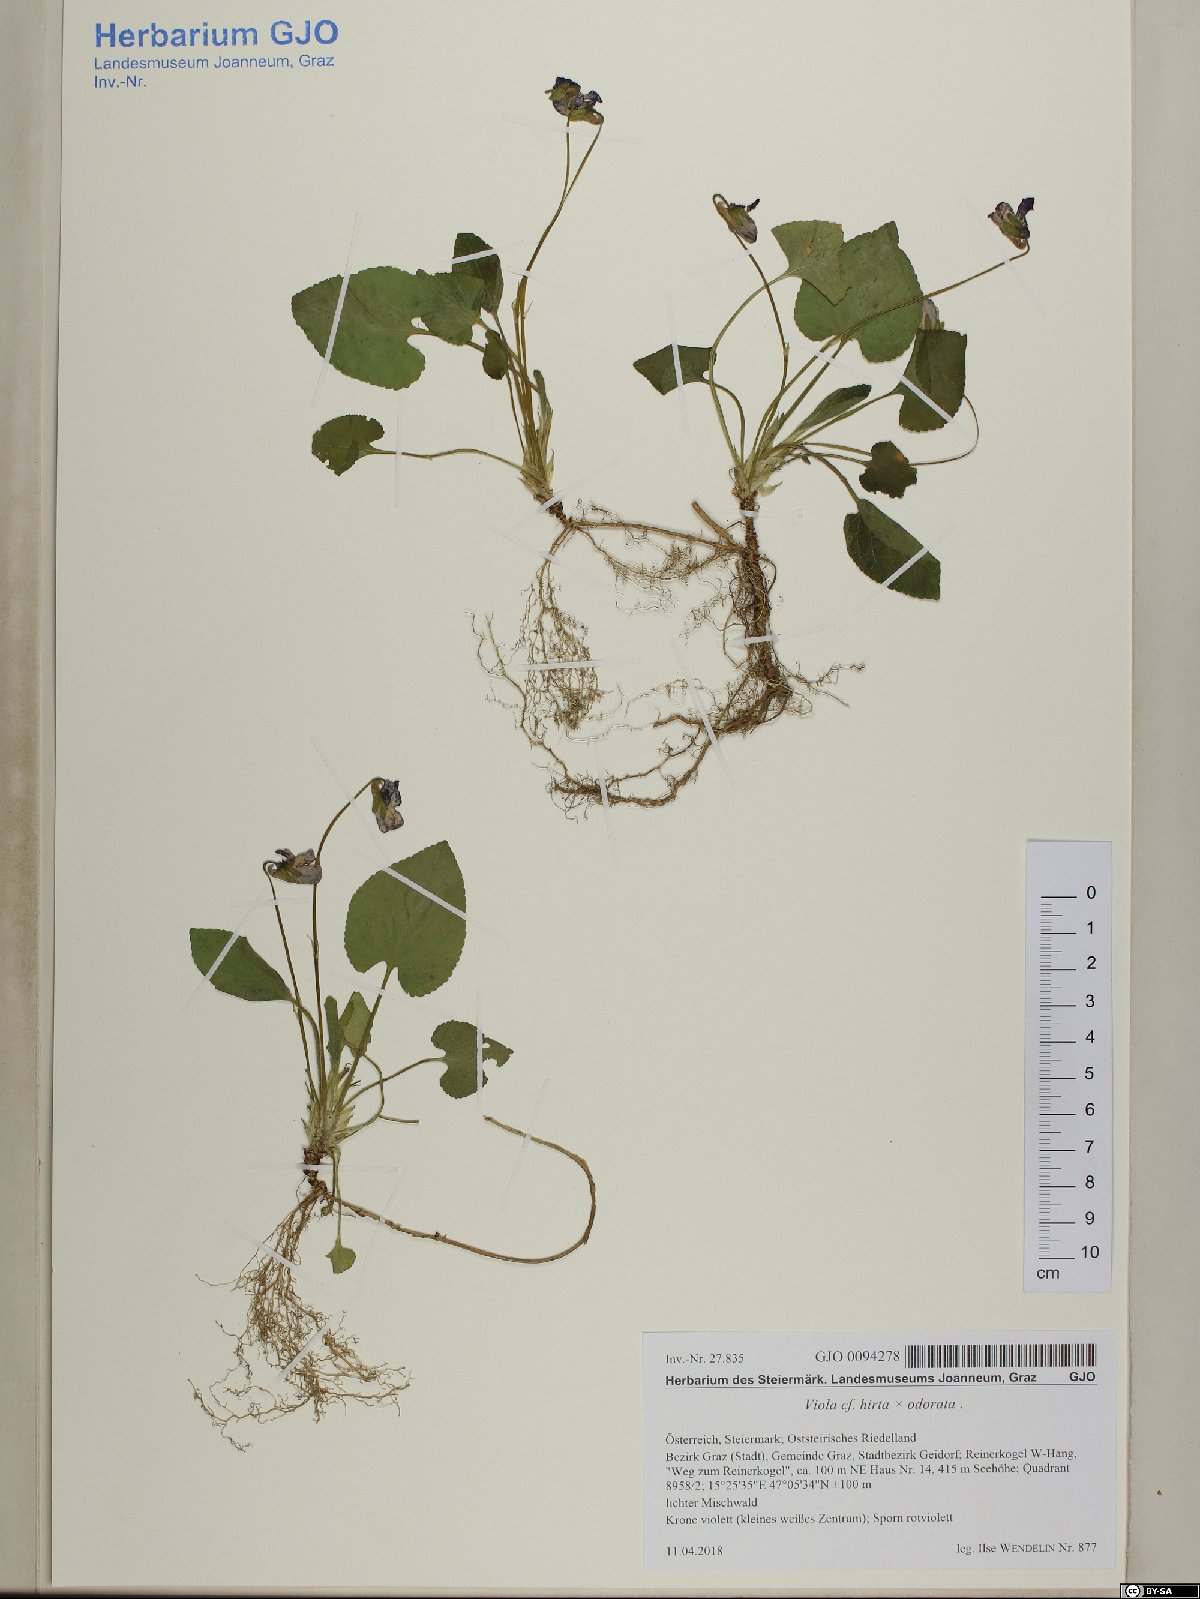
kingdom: Plantae
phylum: Tracheophyta
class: Magnoliopsida
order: Malpighiales
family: Violaceae
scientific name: Violaceae
